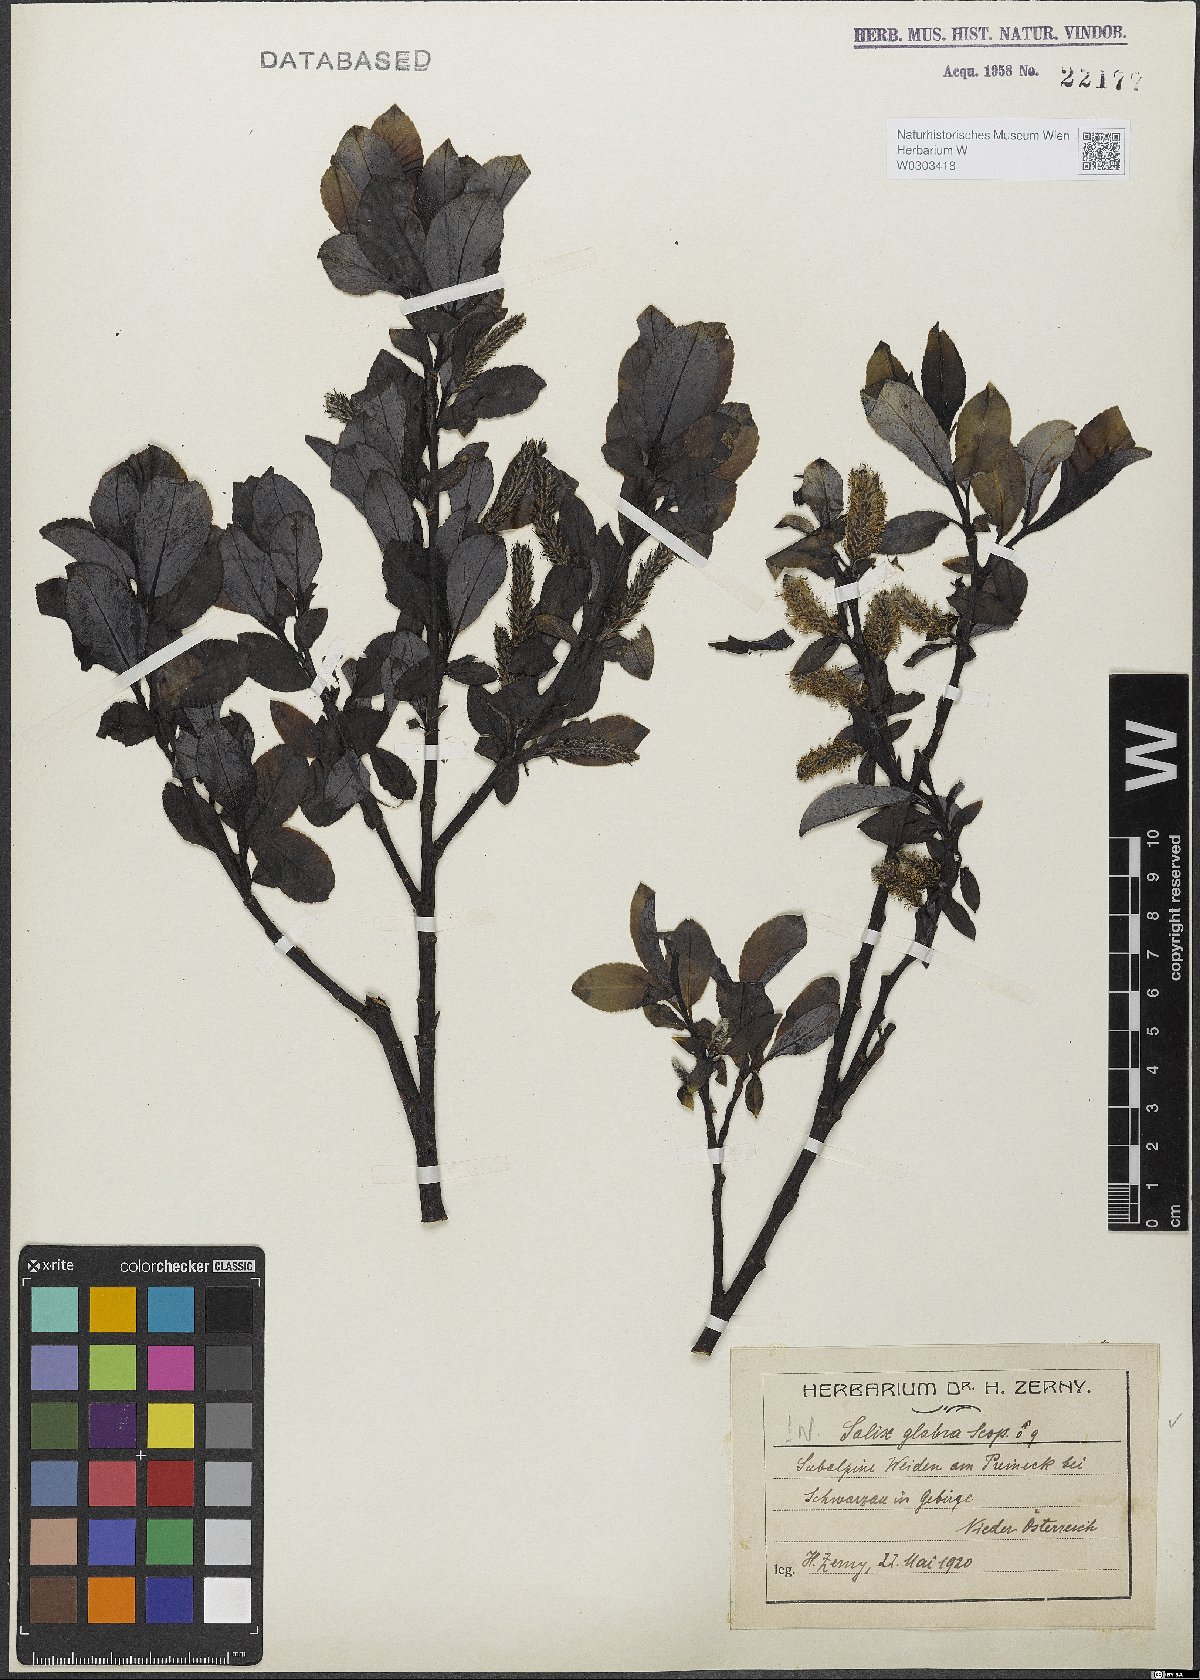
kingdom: Plantae
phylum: Tracheophyta
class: Magnoliopsida
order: Malpighiales
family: Salicaceae
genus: Salix
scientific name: Salix glabra
